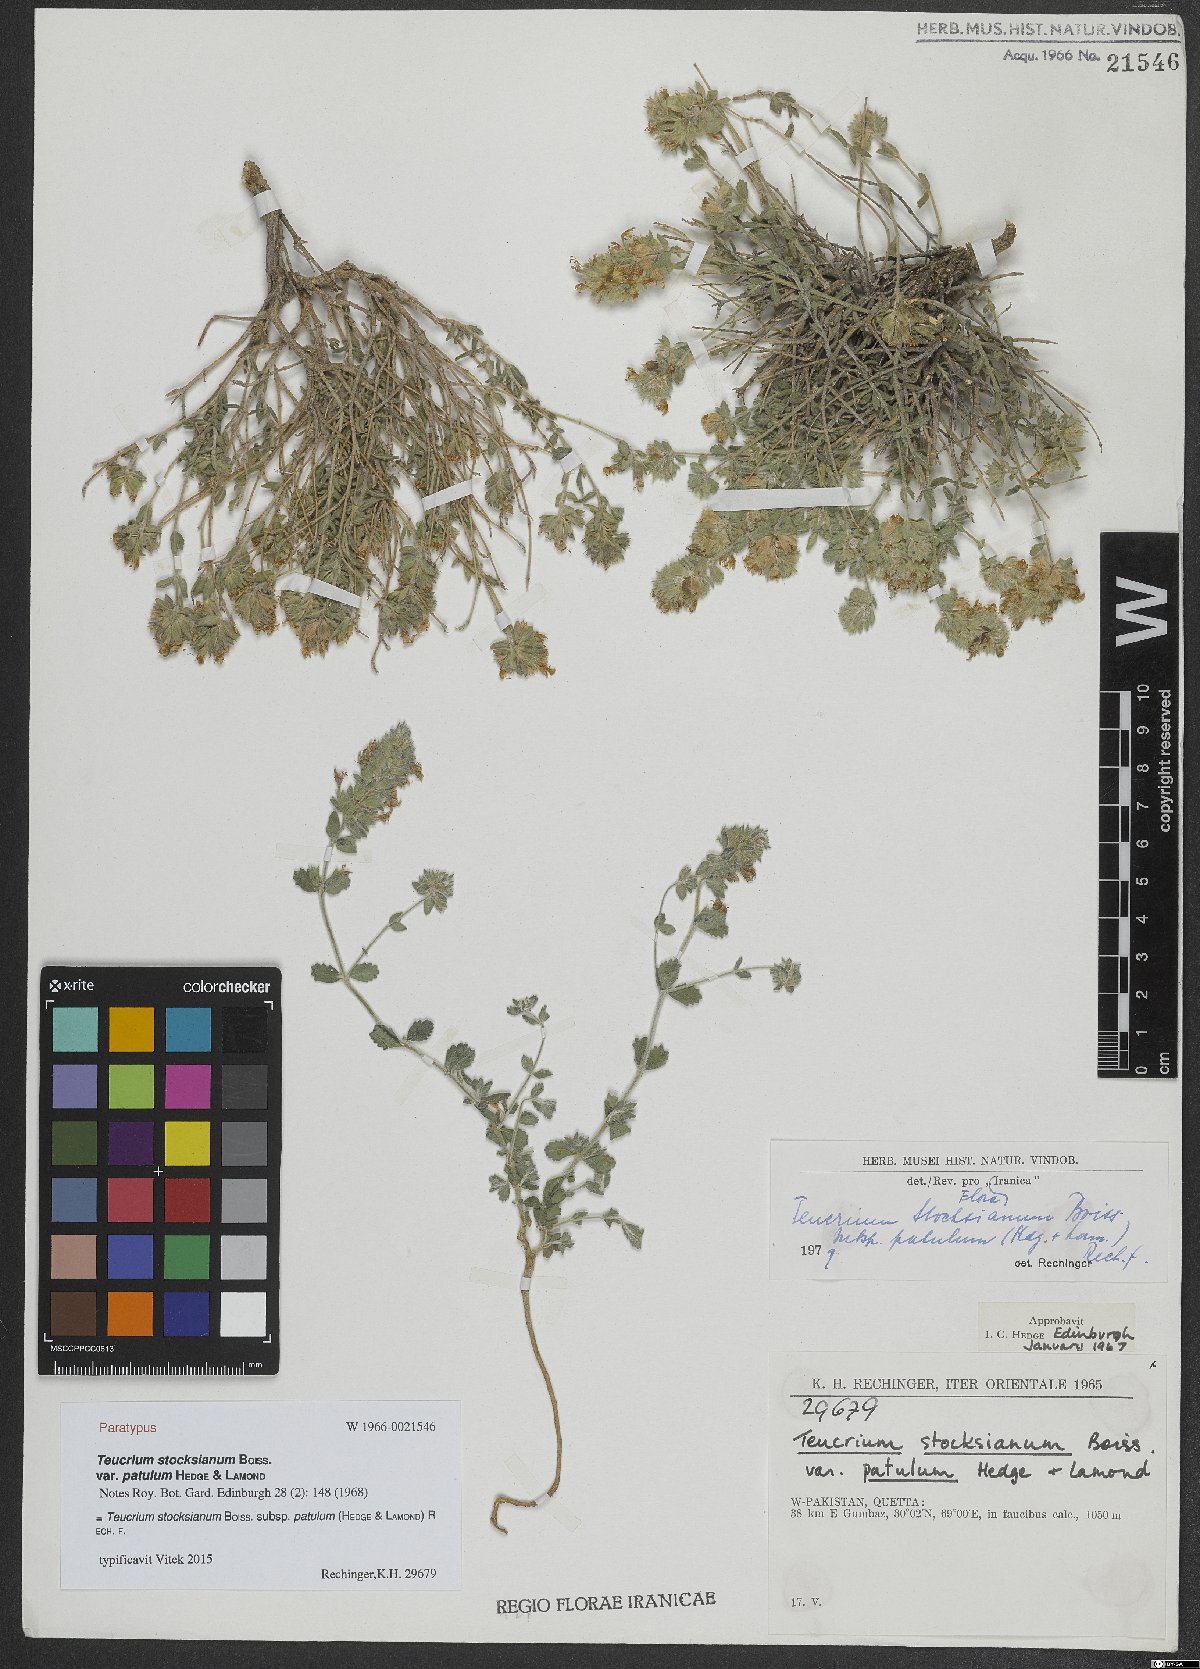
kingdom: Plantae
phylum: Tracheophyta
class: Magnoliopsida
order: Lamiales
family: Lamiaceae
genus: Teucrium
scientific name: Teucrium stocksianum
